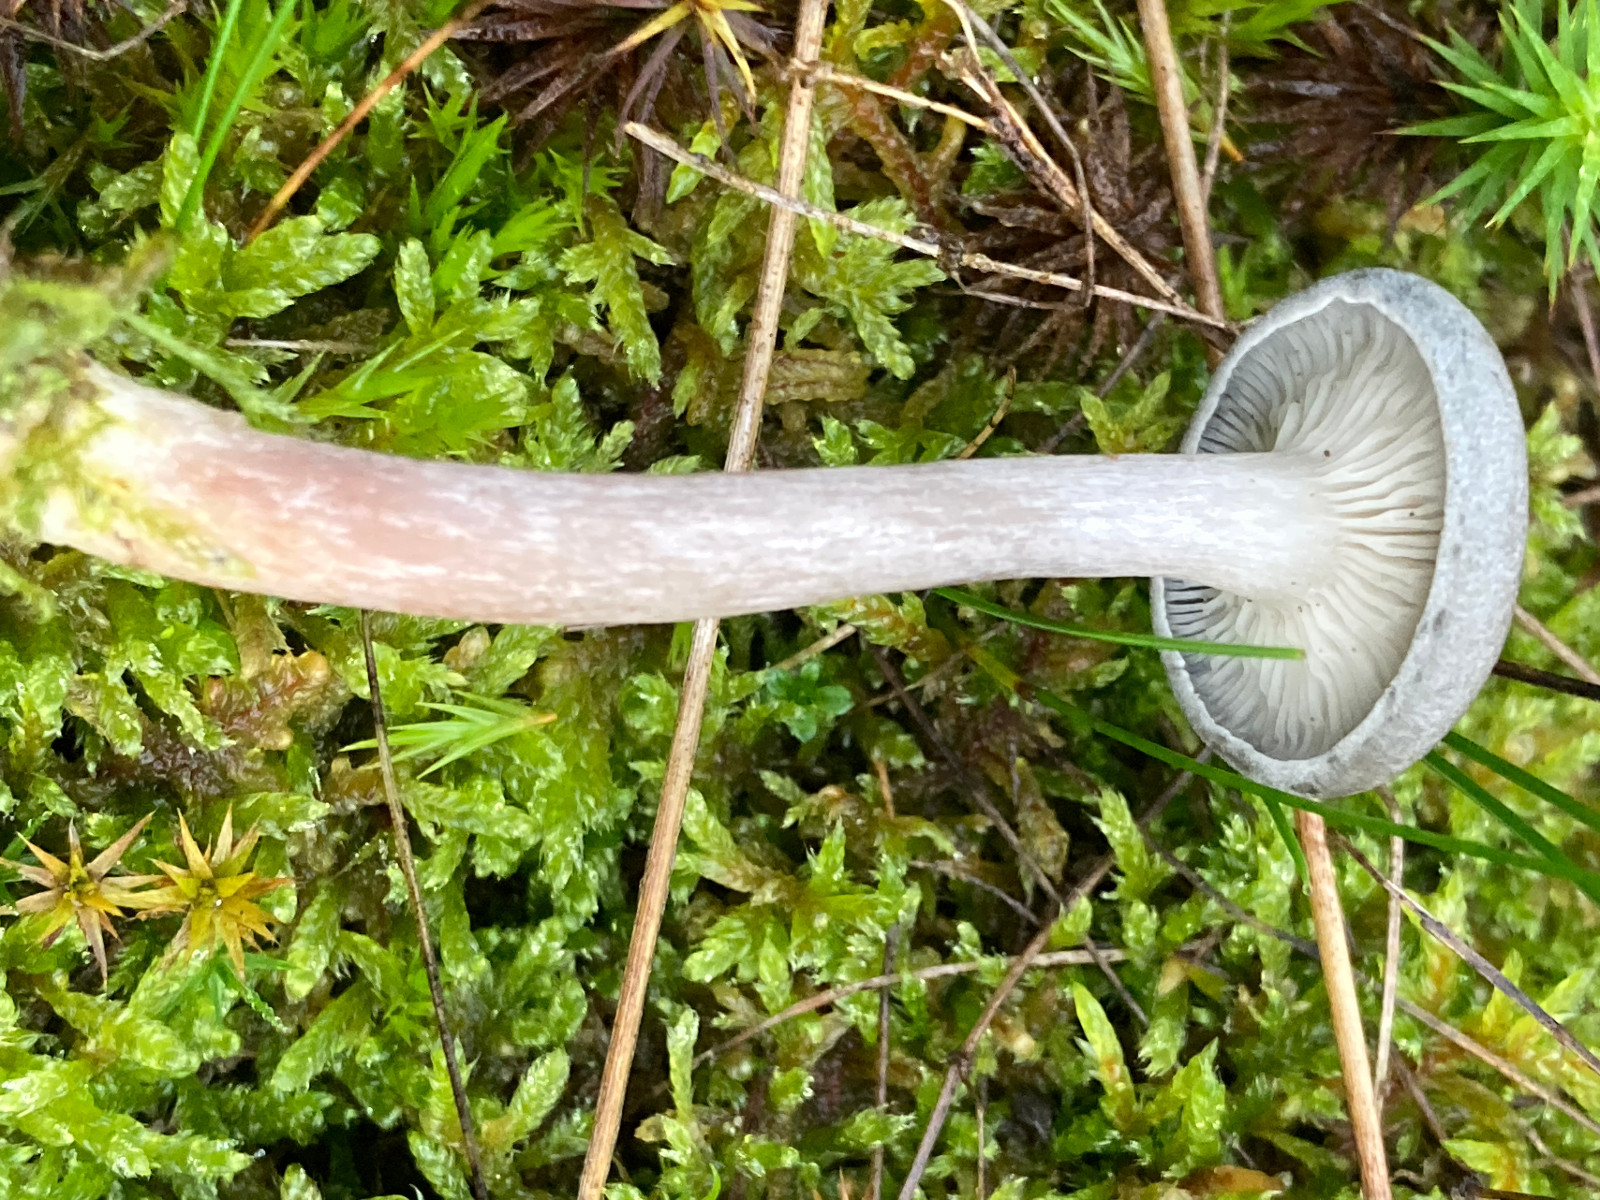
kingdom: Fungi
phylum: Basidiomycota
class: Agaricomycetes
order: Agaricales
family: Hygrophoraceae
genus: Cantharellula
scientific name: Cantharellula umbonata
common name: rødmende gaffelblad
